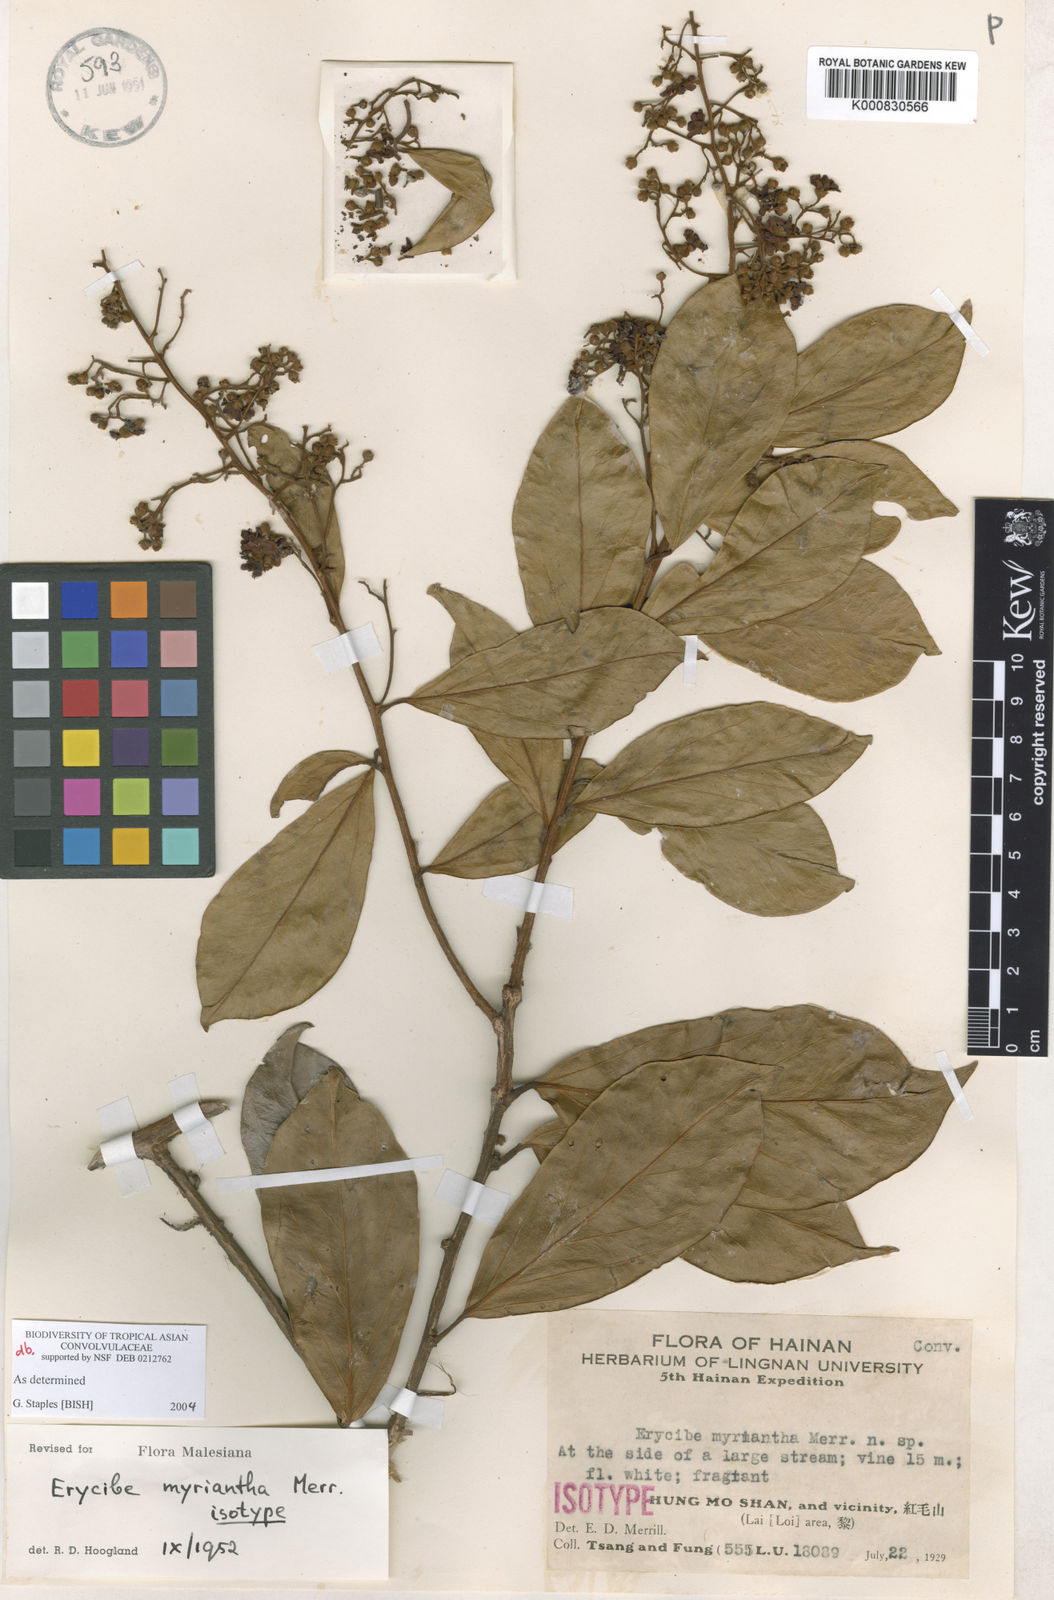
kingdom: Plantae
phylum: Tracheophyta
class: Magnoliopsida
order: Solanales
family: Convolvulaceae
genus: Erycibe
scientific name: Erycibe myriantha
